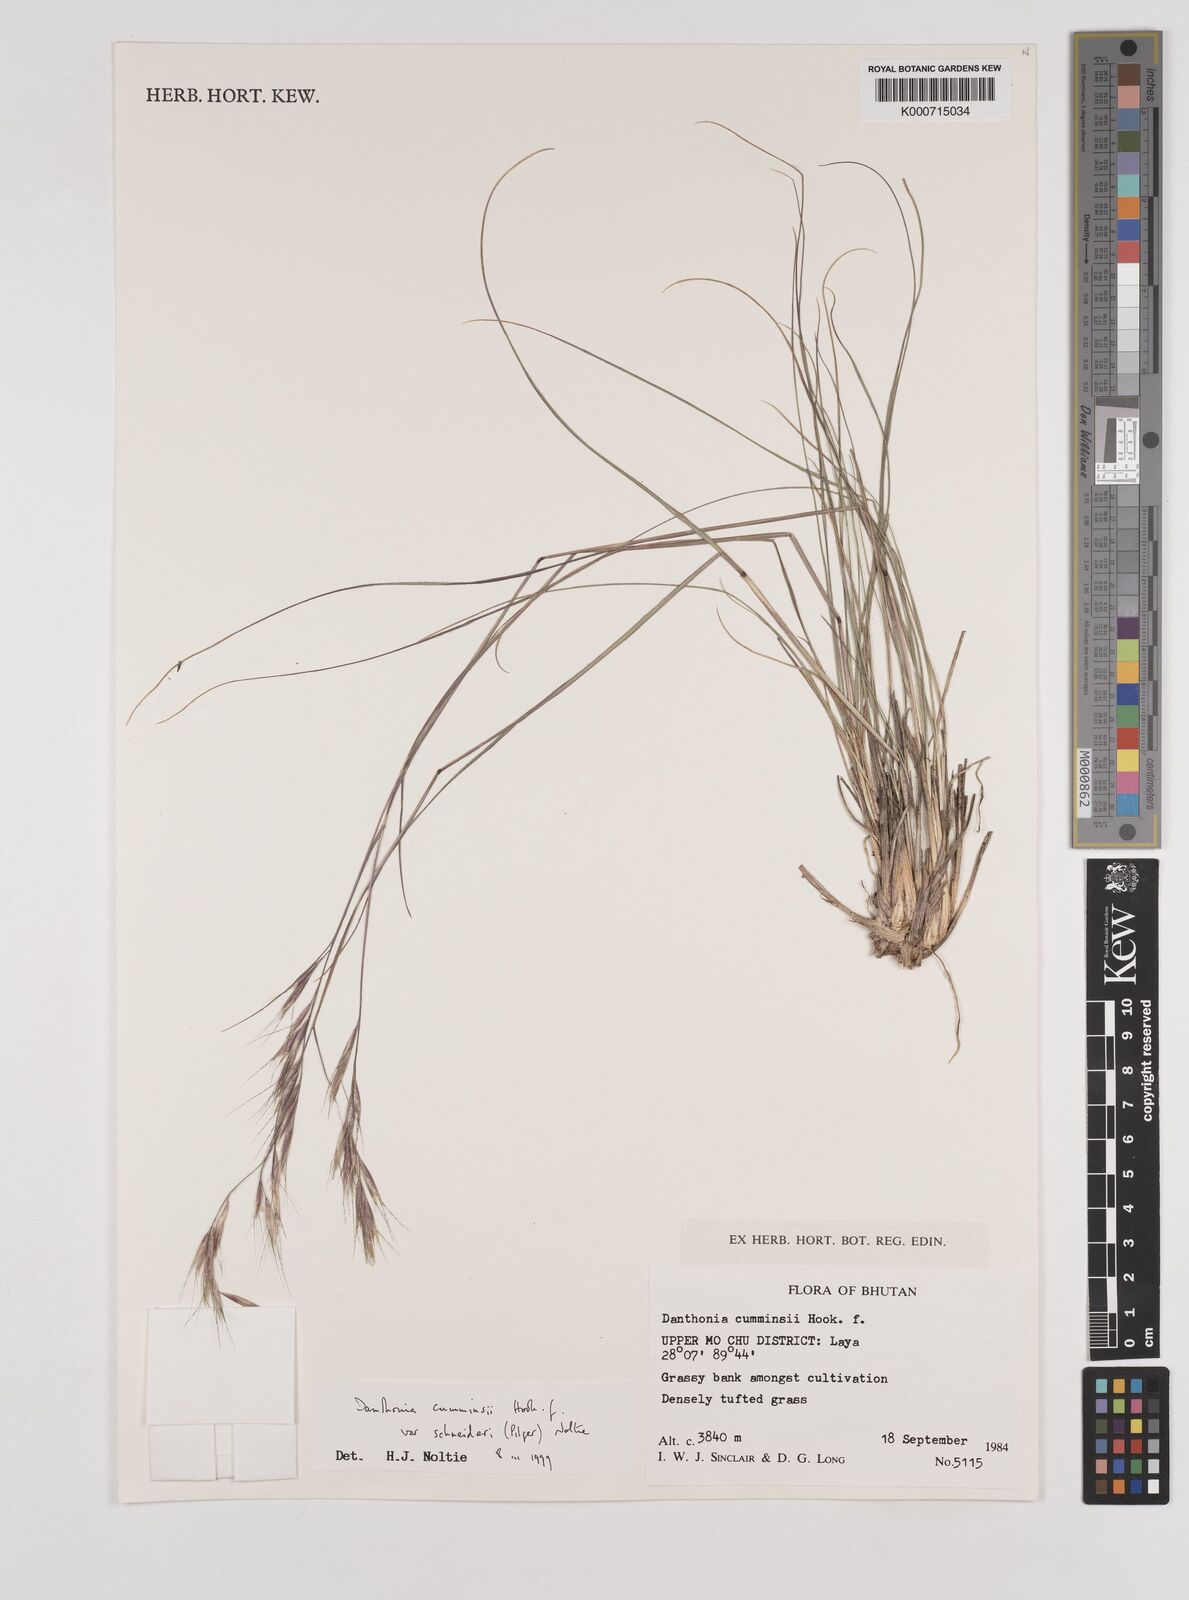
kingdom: Plantae
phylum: Tracheophyta
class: Liliopsida
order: Poales
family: Poaceae
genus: Rytidosperma
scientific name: Rytidosperma
